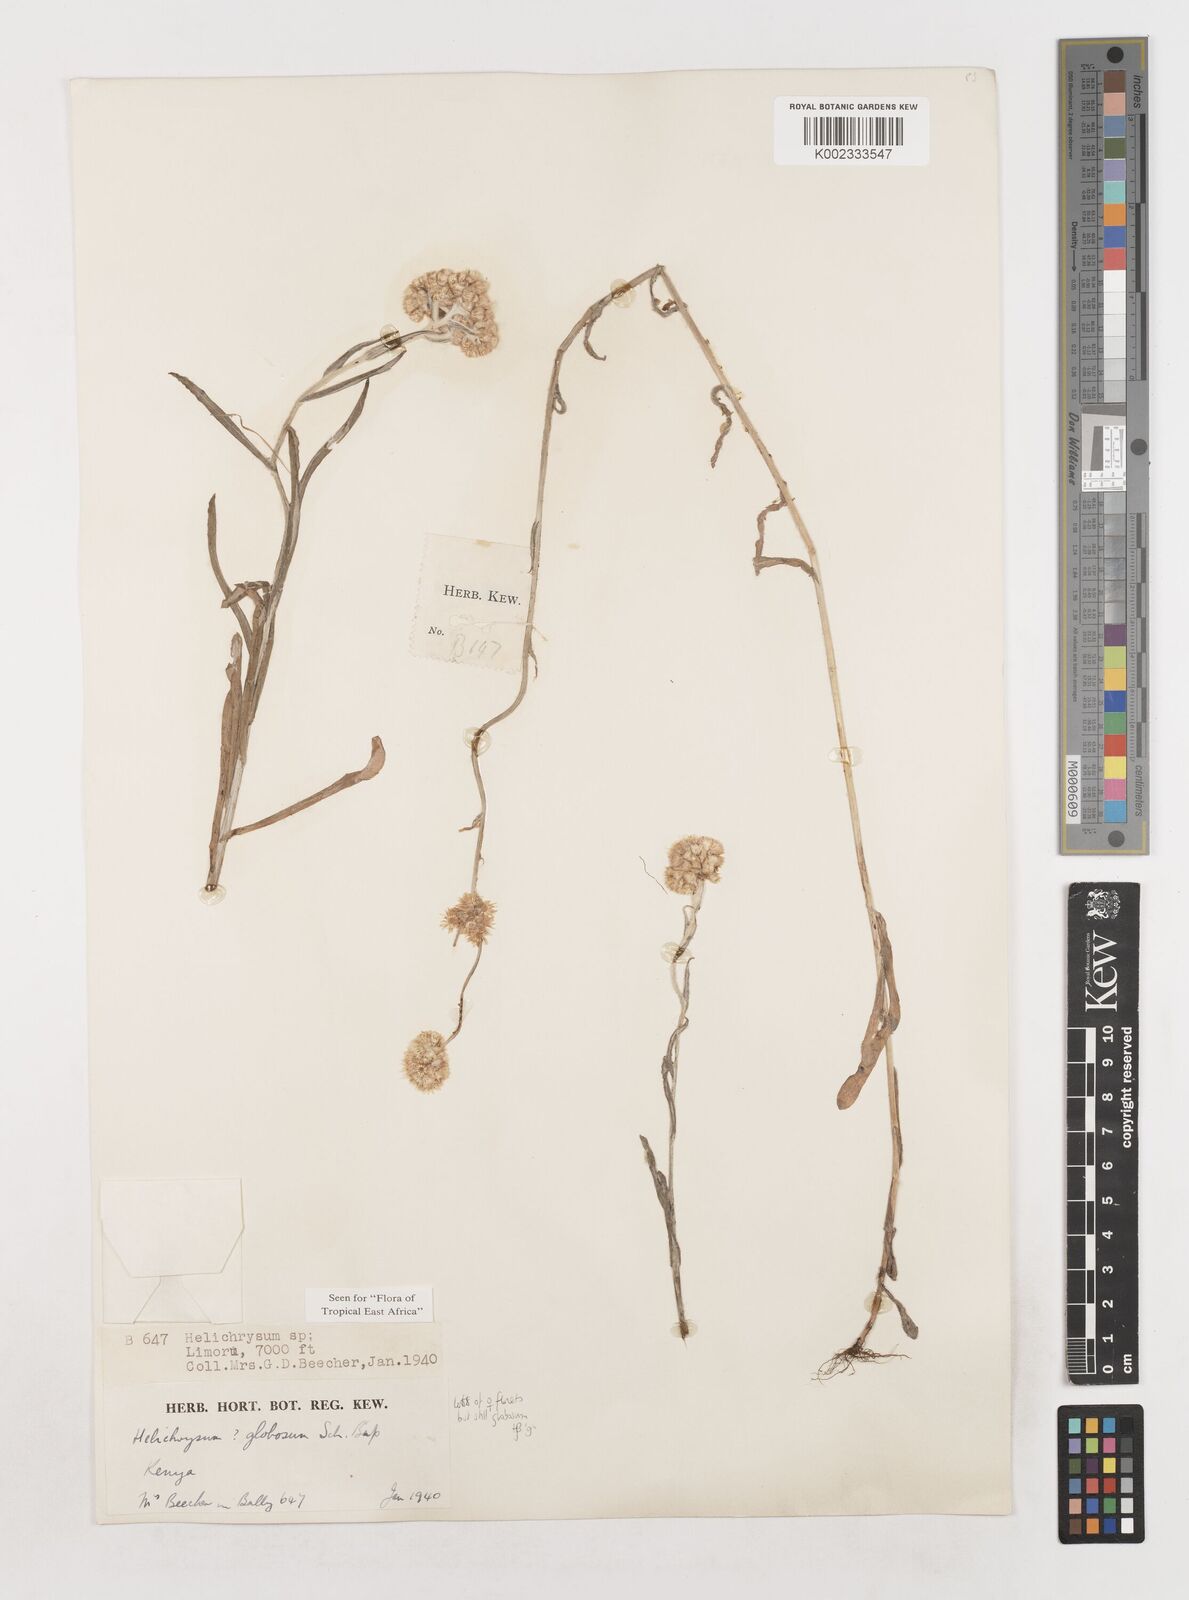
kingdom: Plantae
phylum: Tracheophyta
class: Magnoliopsida
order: Asterales
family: Asteraceae
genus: Helichrysum
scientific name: Helichrysum globosum
